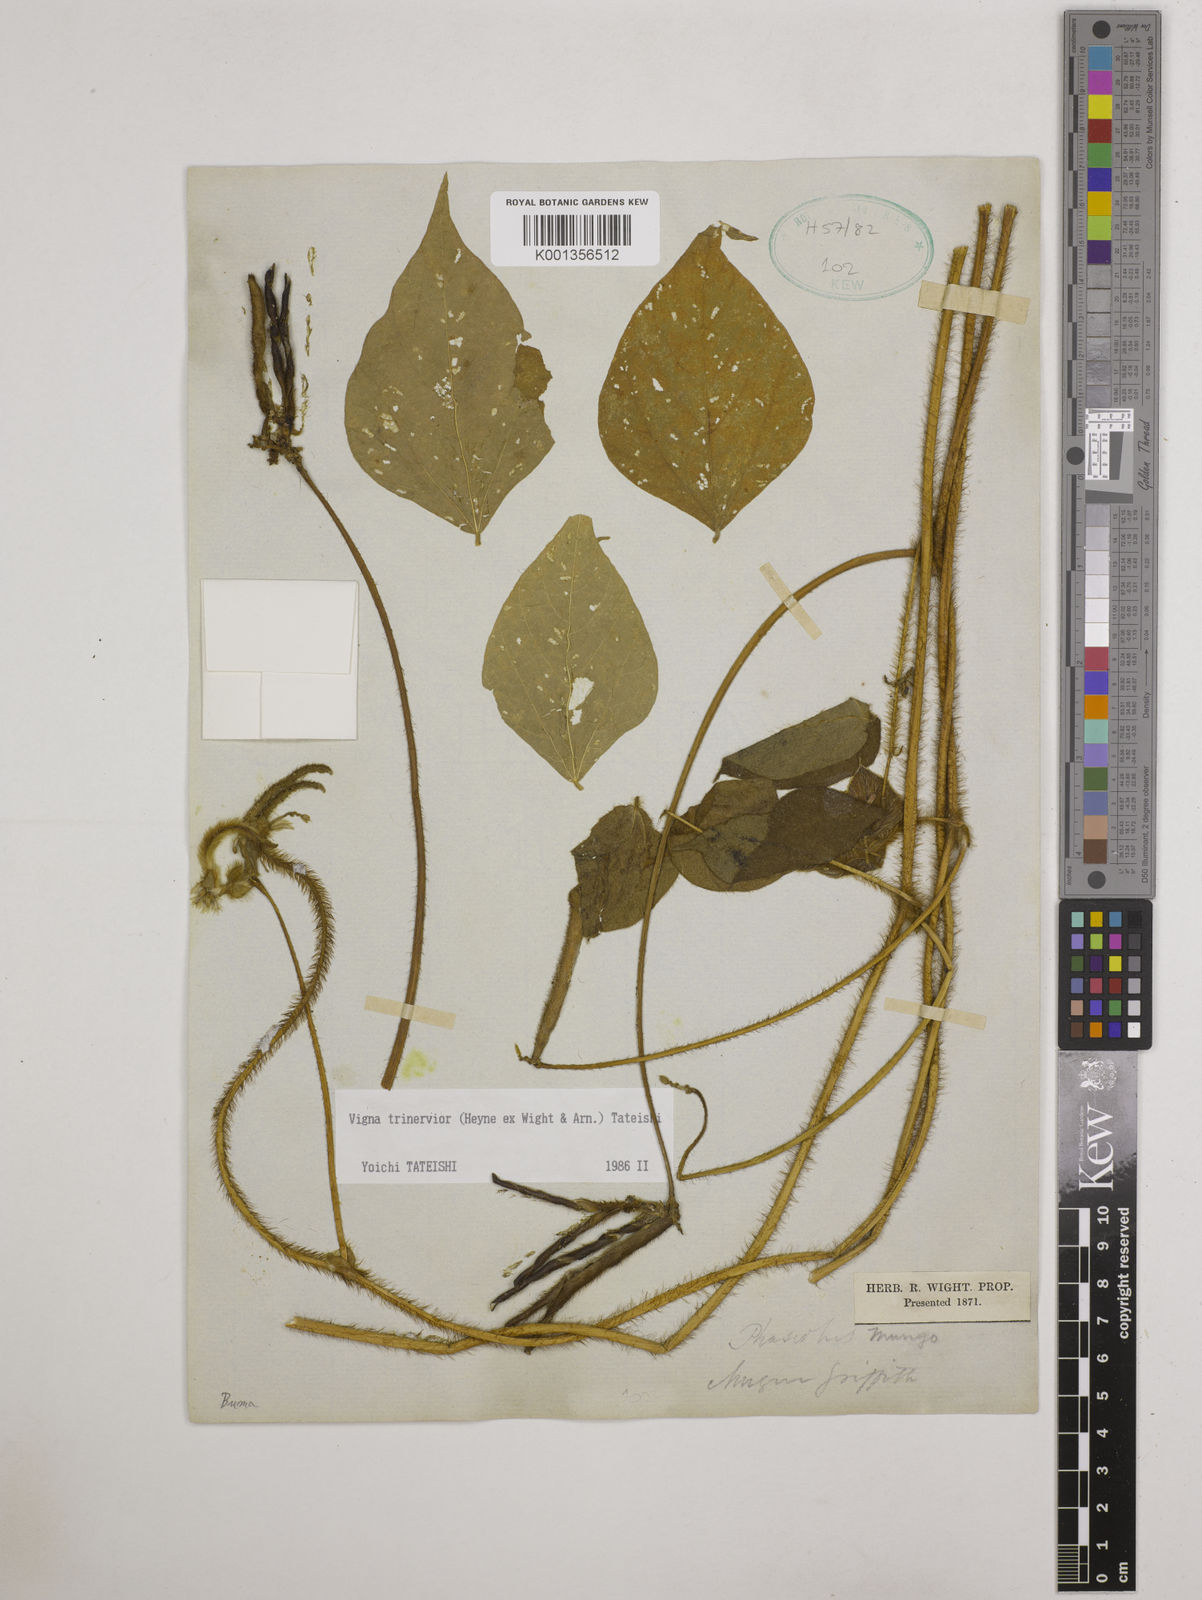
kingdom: Plantae
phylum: Tracheophyta
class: Magnoliopsida
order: Fabales
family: Fabaceae
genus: Vigna
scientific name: Vigna radiata
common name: Mung-bean
